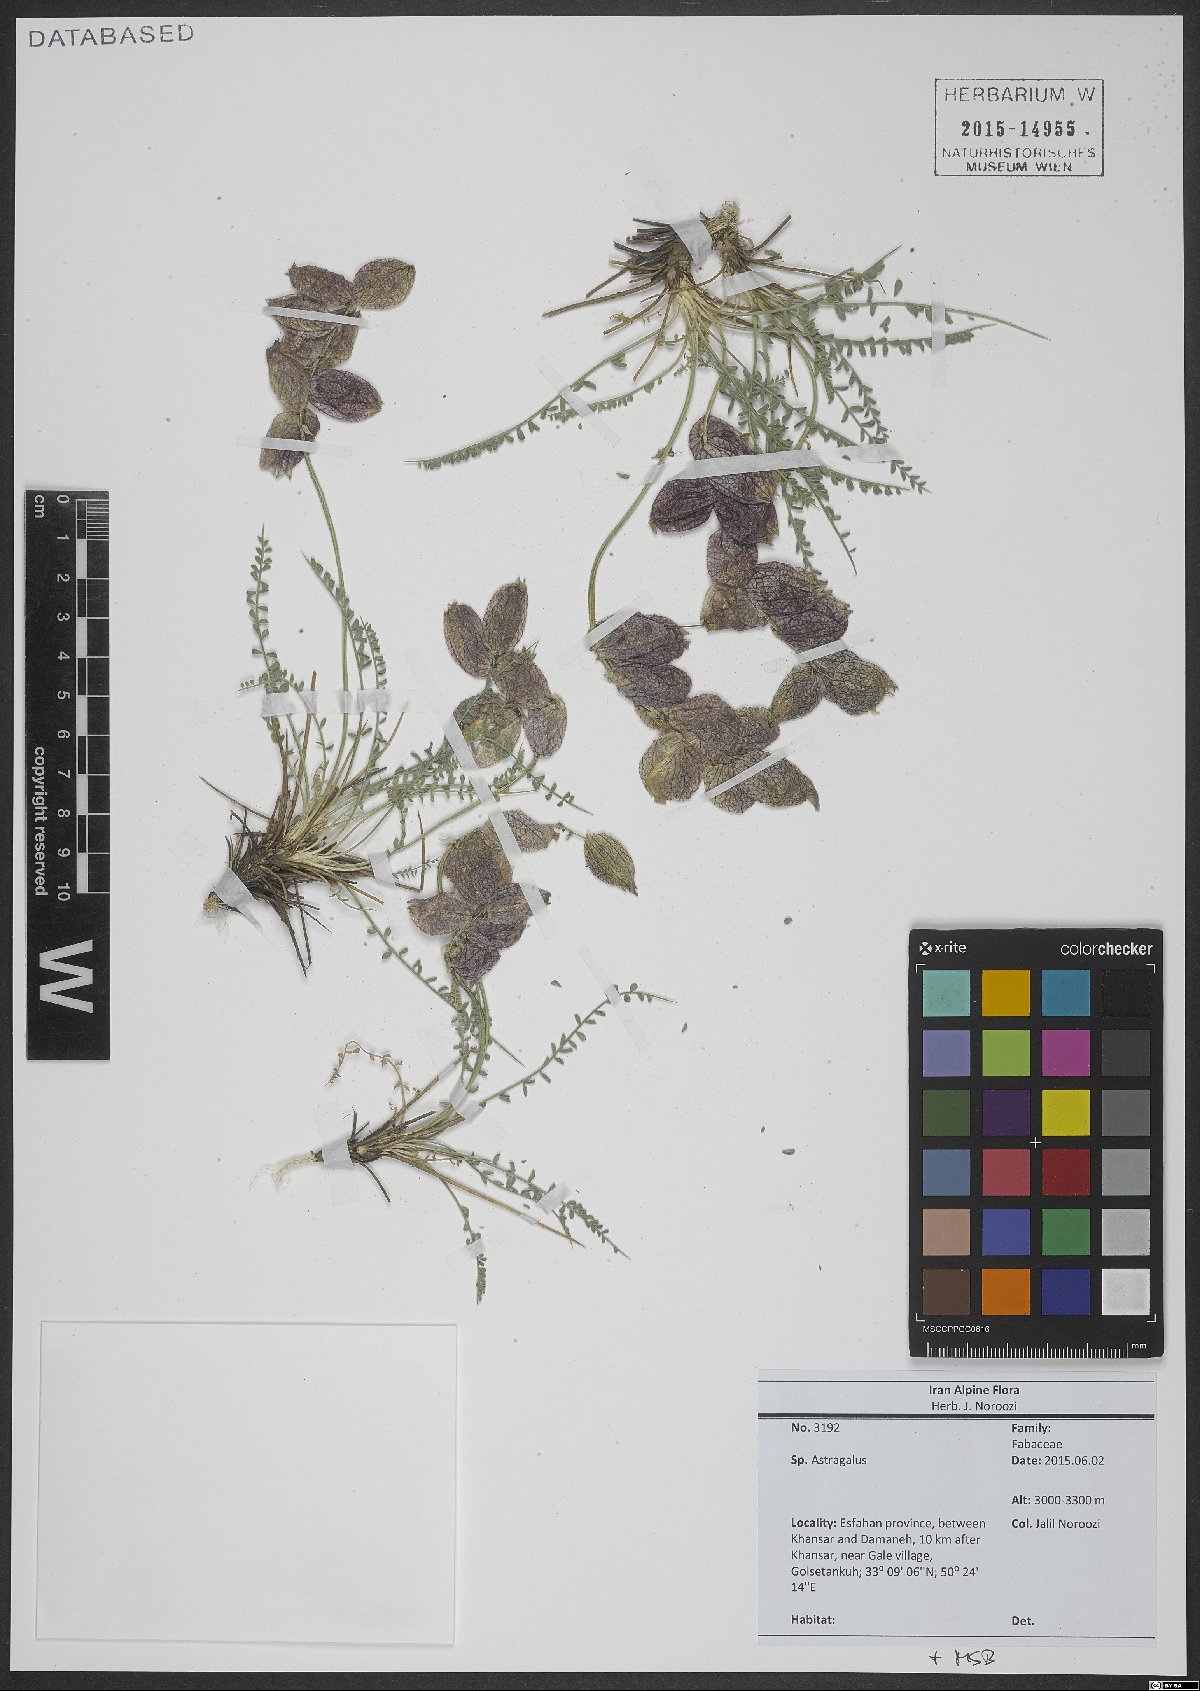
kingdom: Plantae
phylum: Tracheophyta
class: Magnoliopsida
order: Fabales
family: Fabaceae
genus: Astragalus
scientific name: Astragalus
